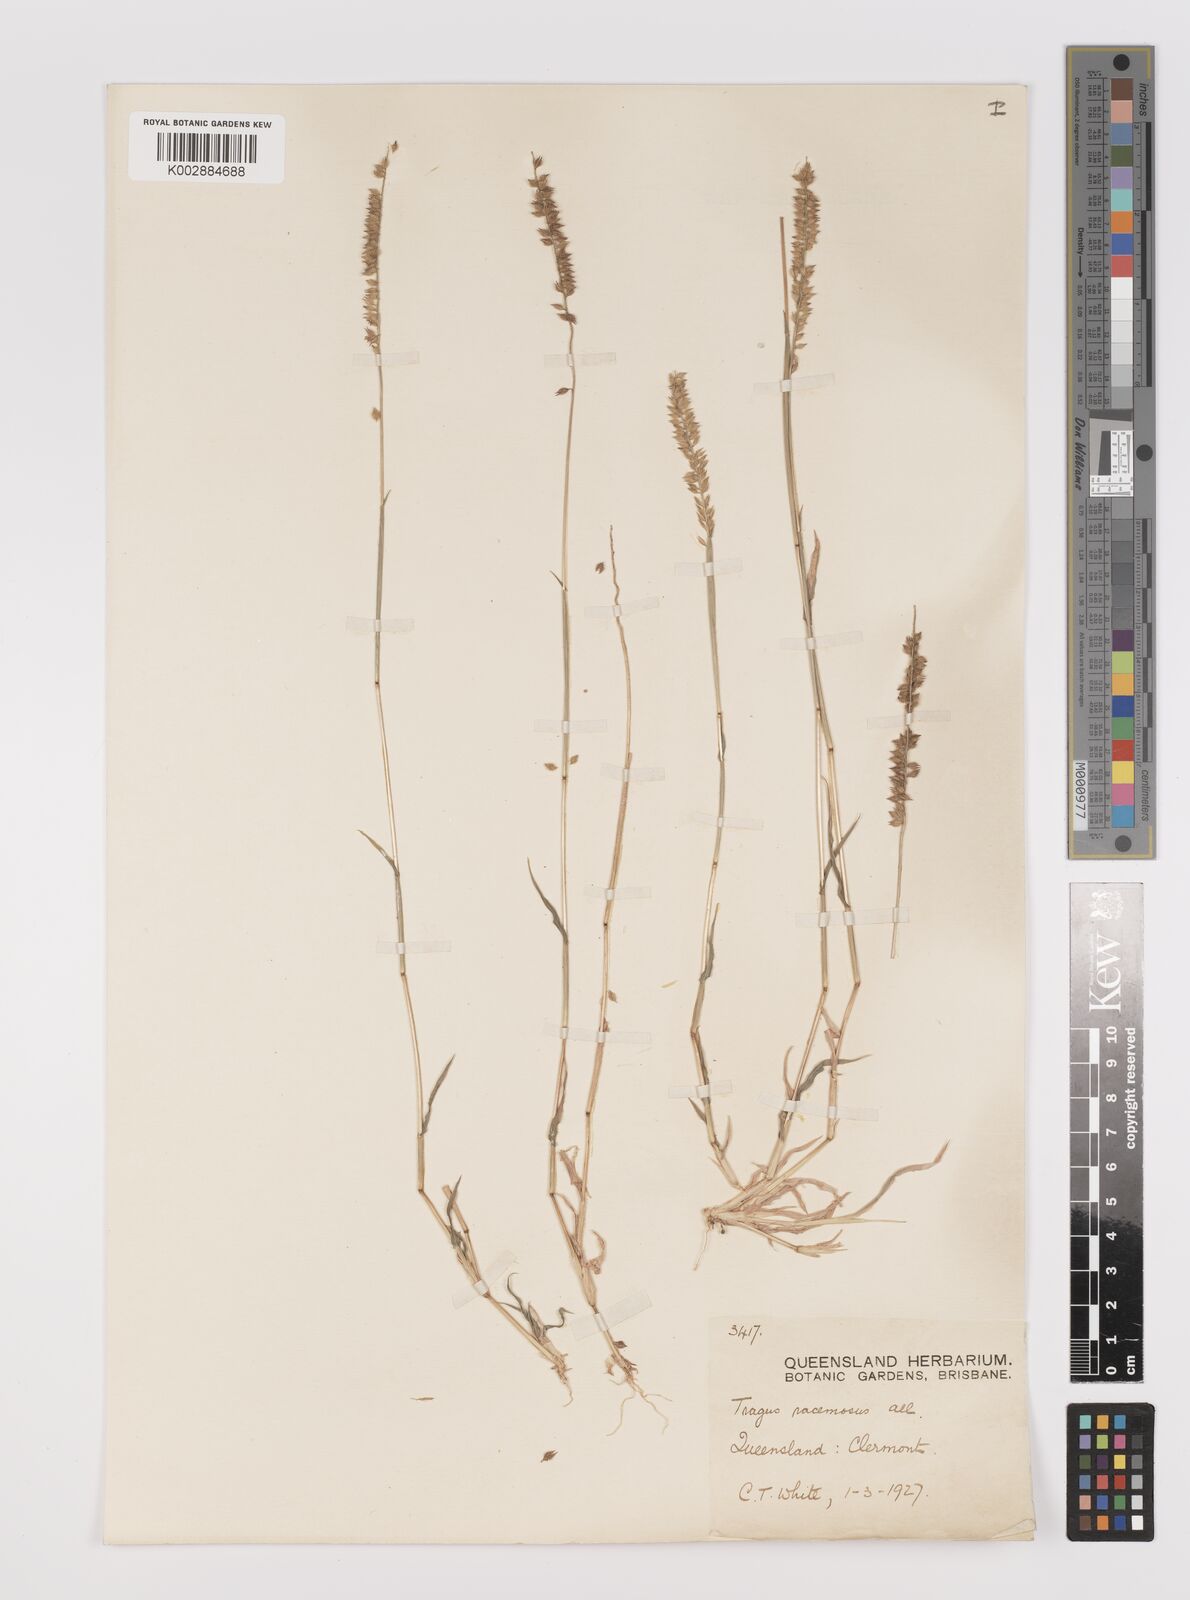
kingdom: Plantae
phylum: Tracheophyta
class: Liliopsida
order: Poales
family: Poaceae
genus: Tragus
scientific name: Tragus australianus
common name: Australian bur-grass
